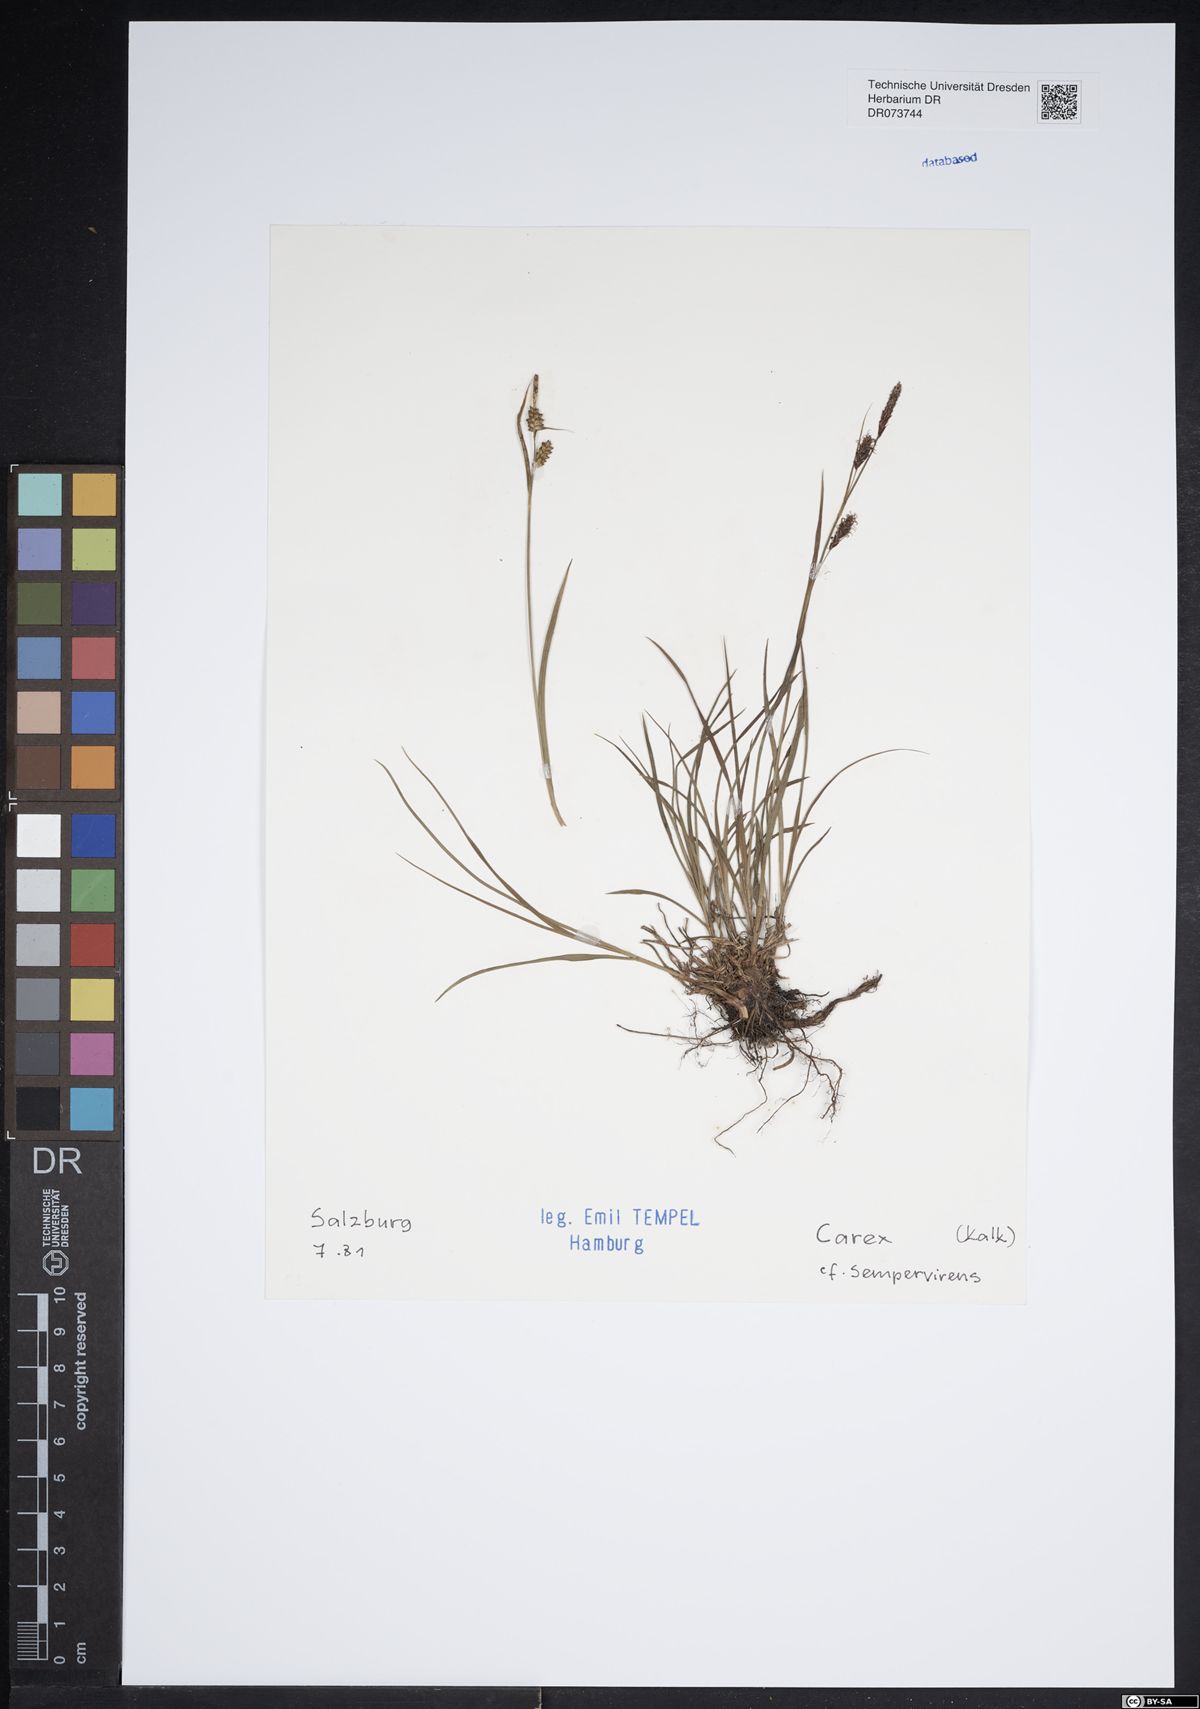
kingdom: Plantae
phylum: Tracheophyta
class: Liliopsida
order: Poales
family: Cyperaceae
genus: Carex
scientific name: Carex sempervirens
